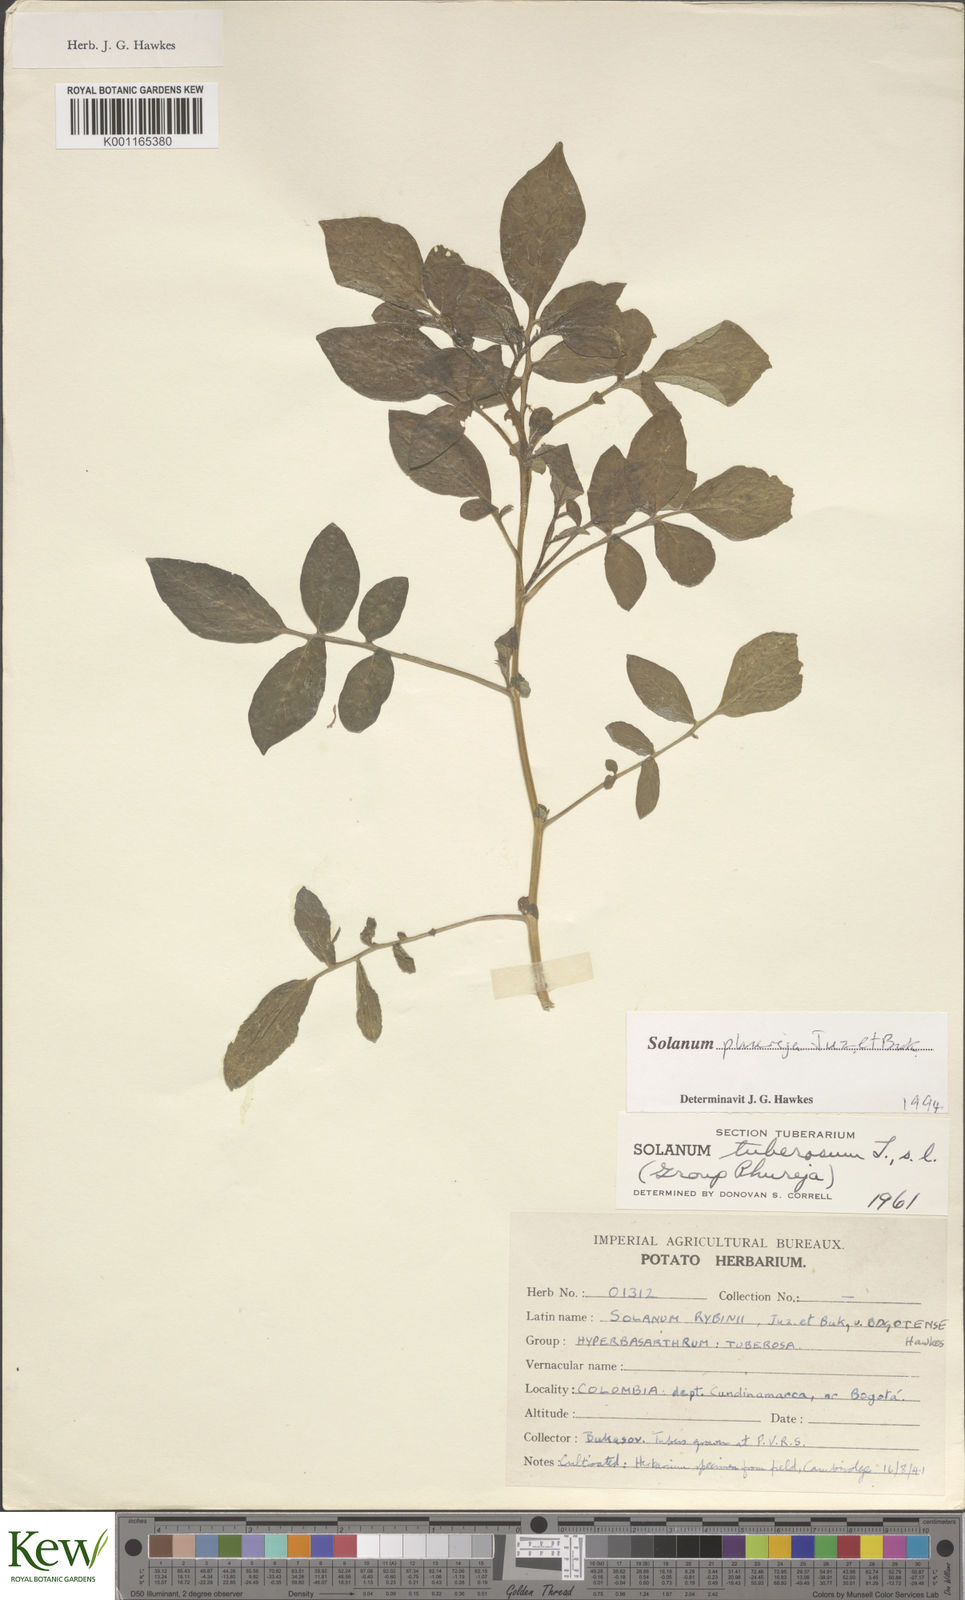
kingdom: Plantae
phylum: Tracheophyta
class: Magnoliopsida
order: Solanales
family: Solanaceae
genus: Solanum
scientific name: Solanum tuberosum
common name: Potato
